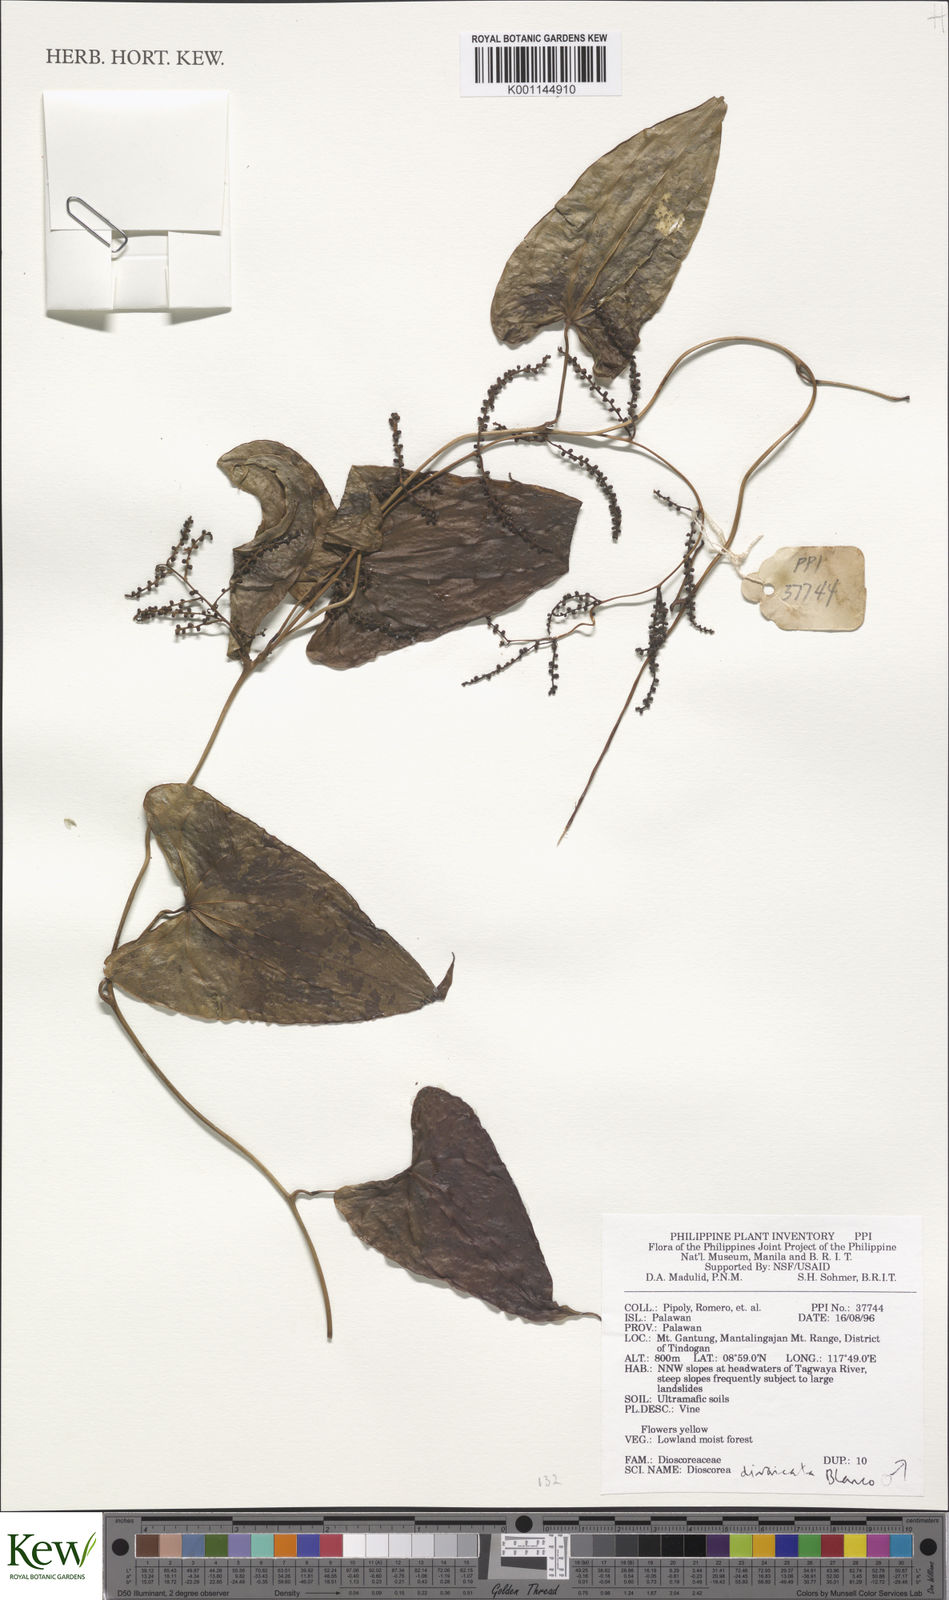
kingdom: Plantae
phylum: Tracheophyta
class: Liliopsida
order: Dioscoreales
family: Dioscoreaceae
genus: Dioscorea
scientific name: Dioscorea divaricata
